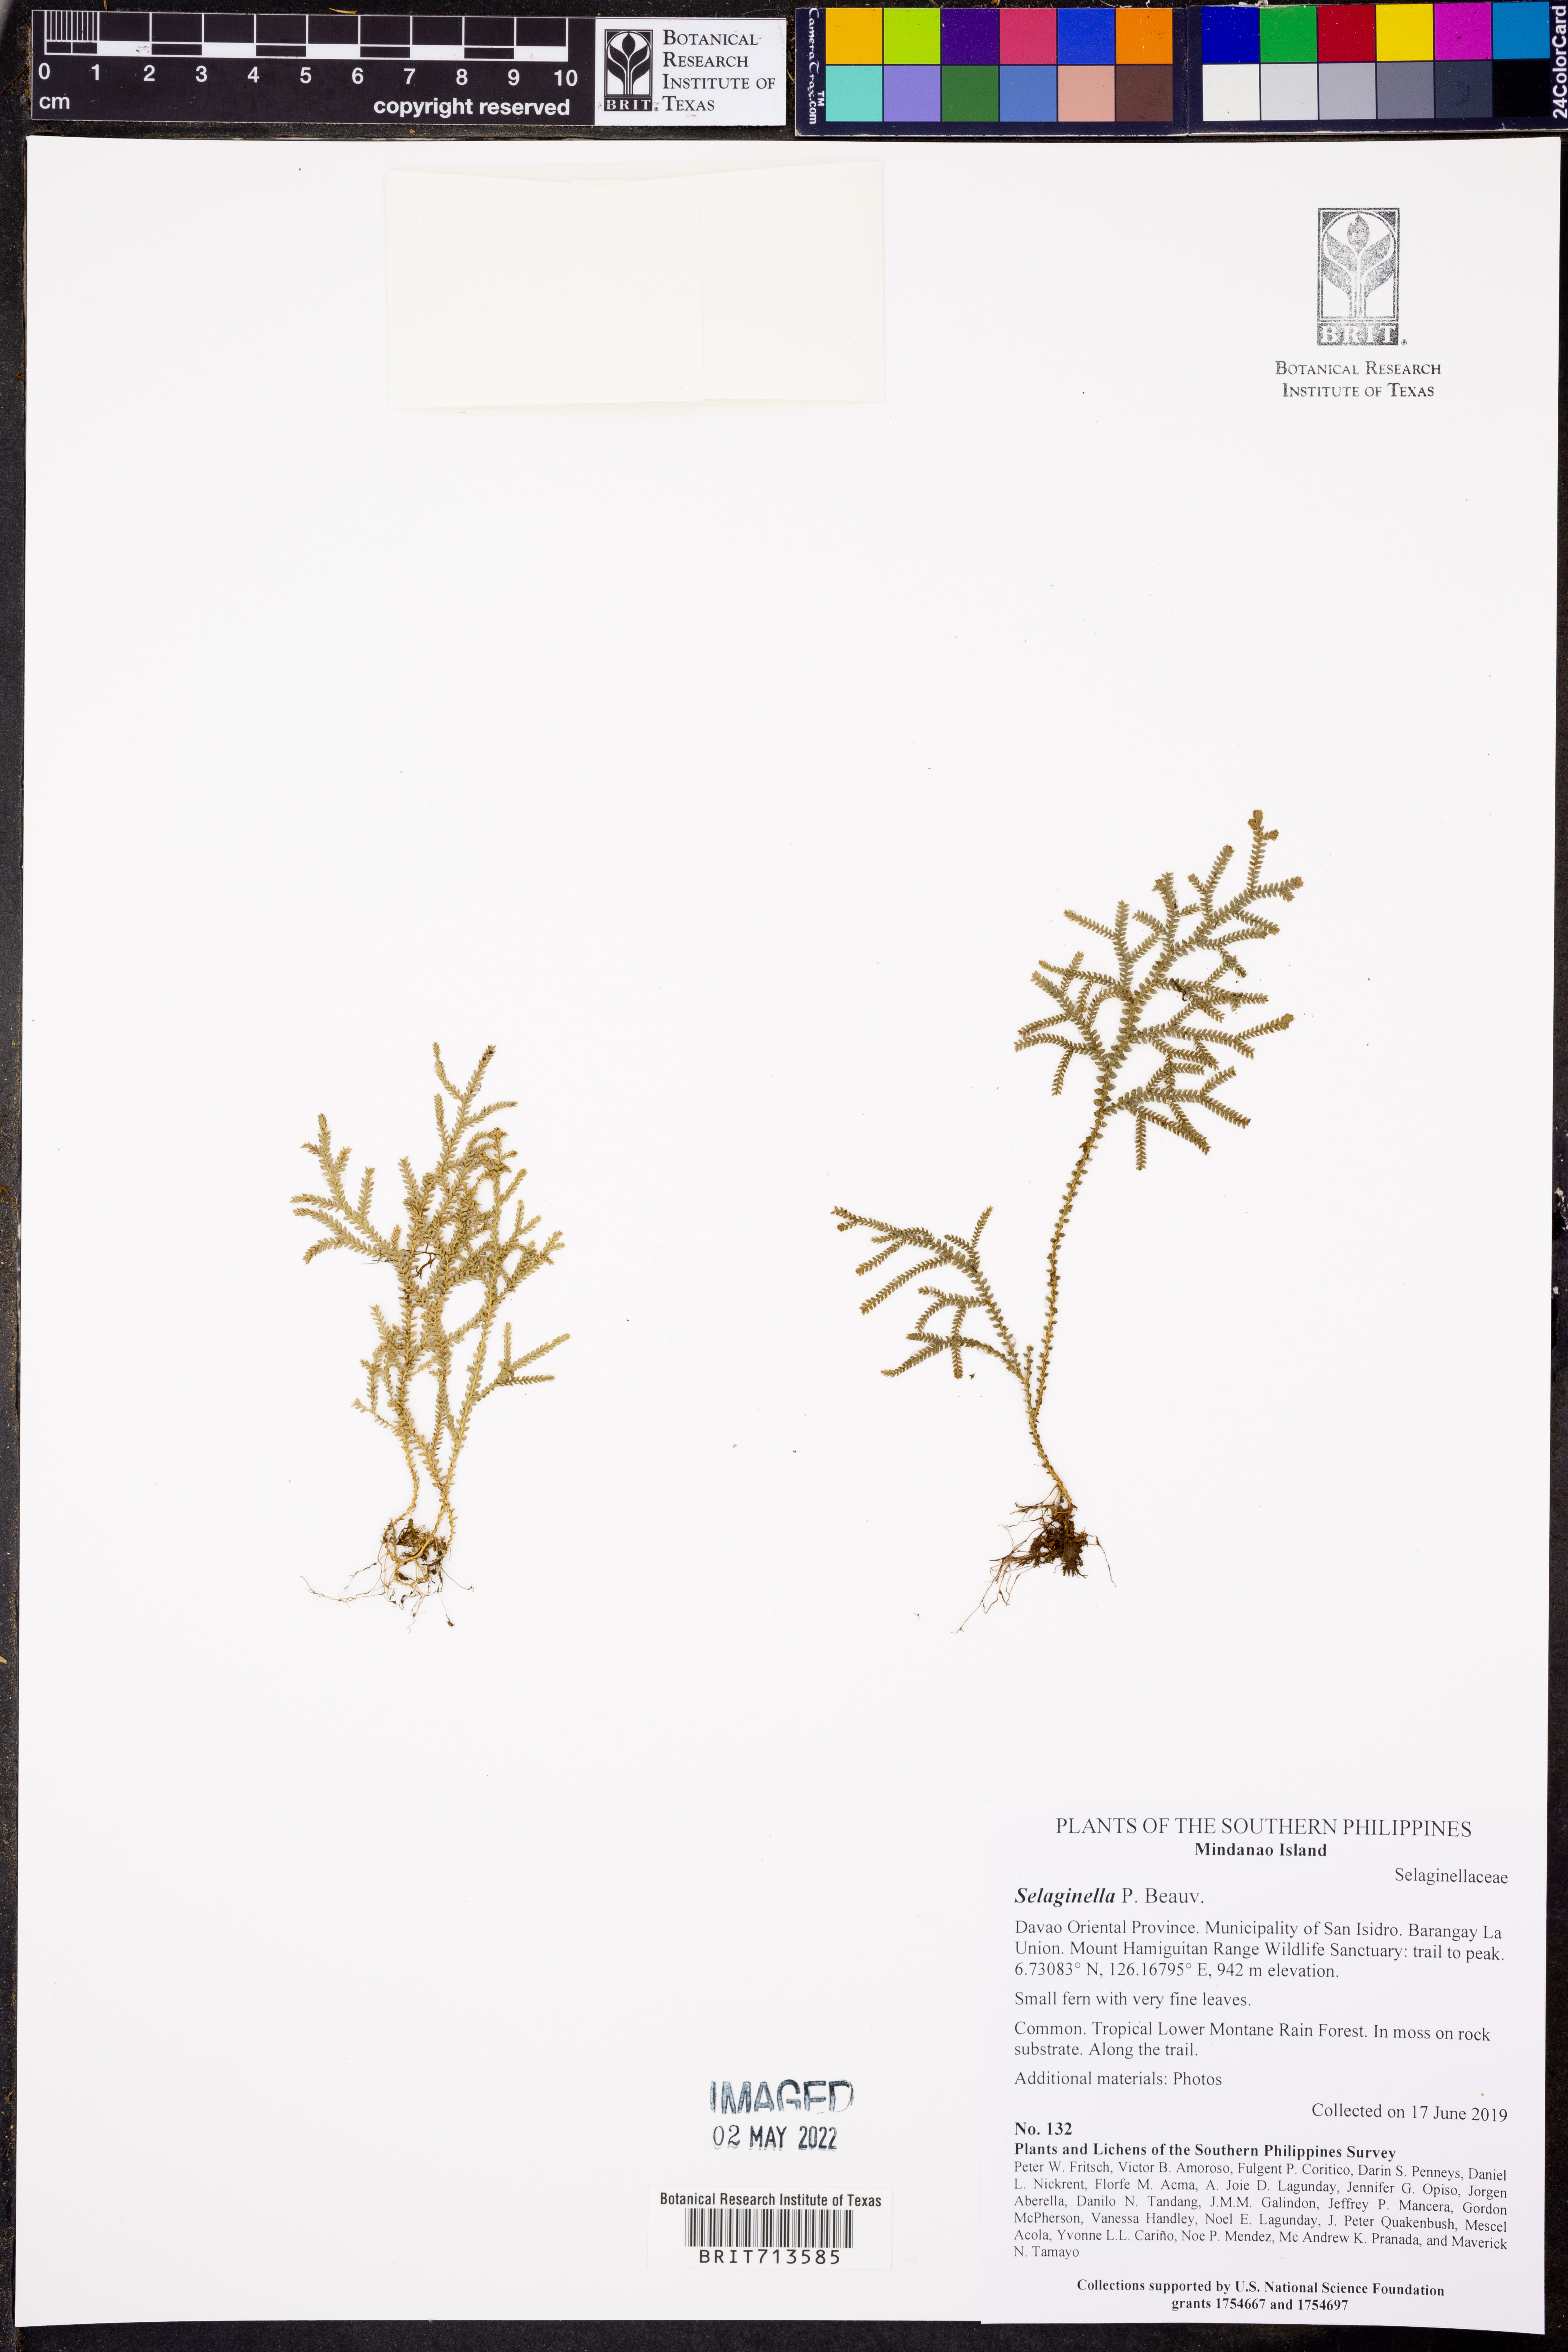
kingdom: Plantae
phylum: Tracheophyta
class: Lycopodiopsida
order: Selaginellales
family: Selaginellaceae
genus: Selaginella
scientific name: Selaginella
